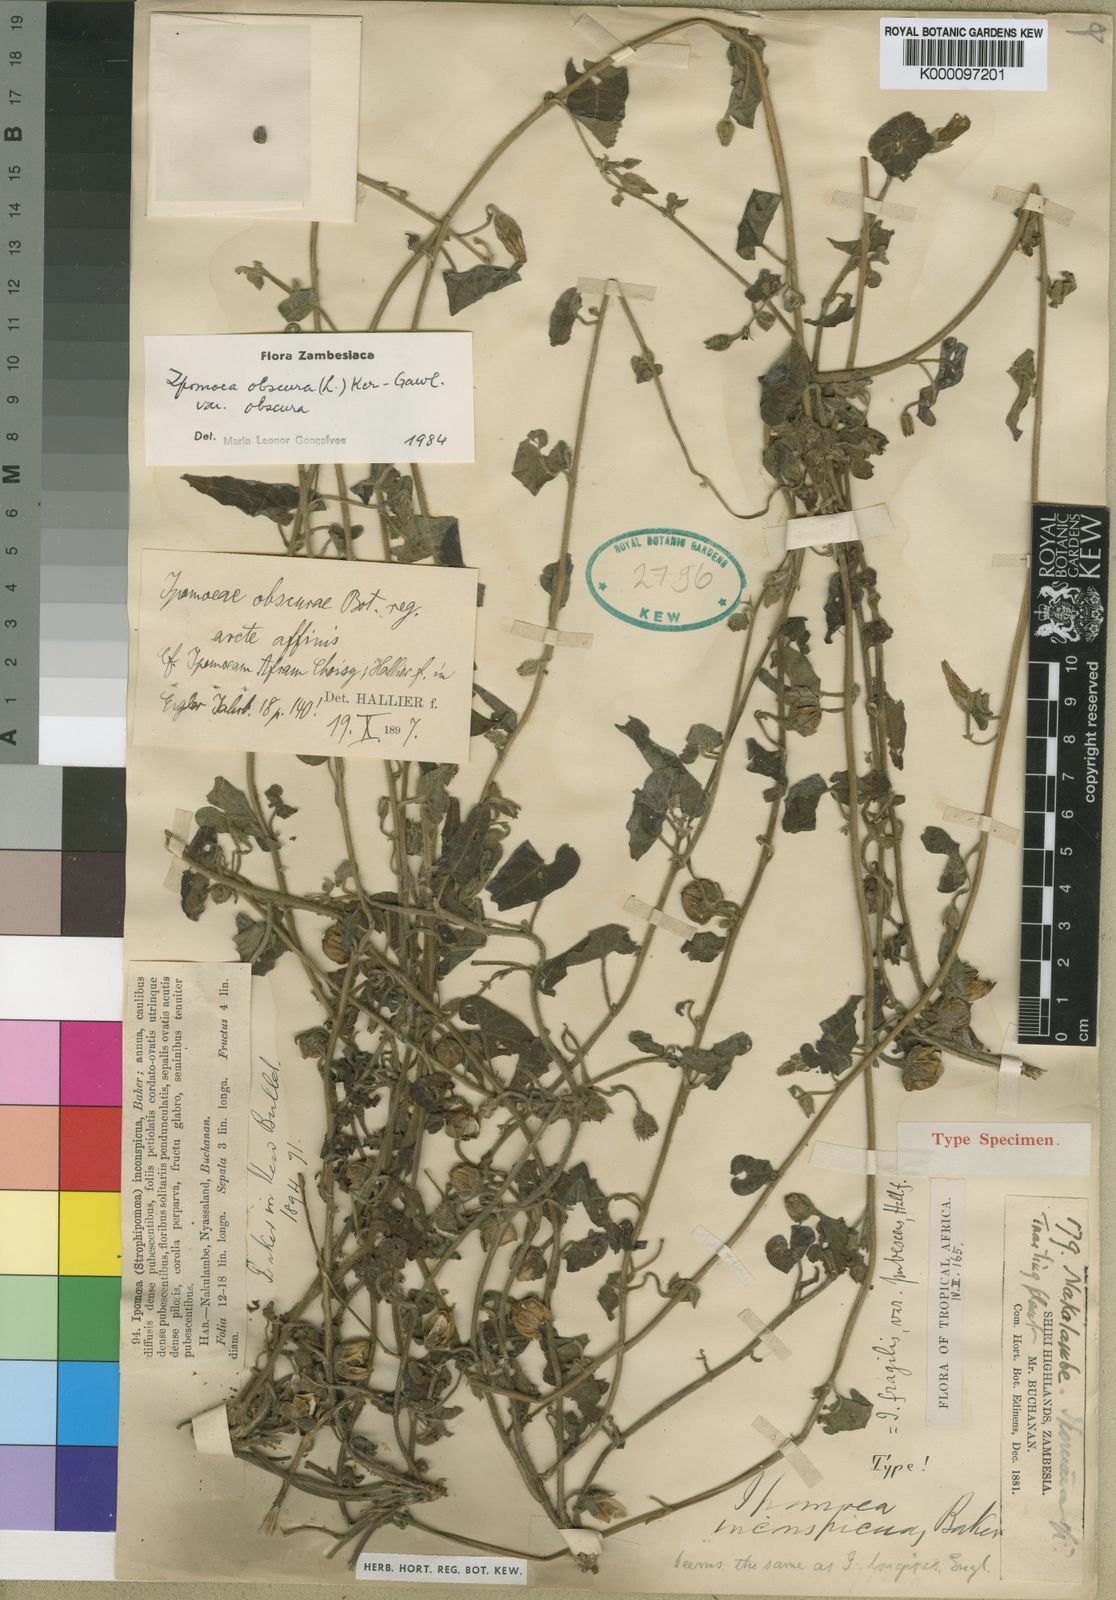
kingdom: Plantae
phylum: Tracheophyta
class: Magnoliopsida
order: Solanales
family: Convolvulaceae
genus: Ipomoea
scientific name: Ipomoea obscura
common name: Obscure morning-glory
